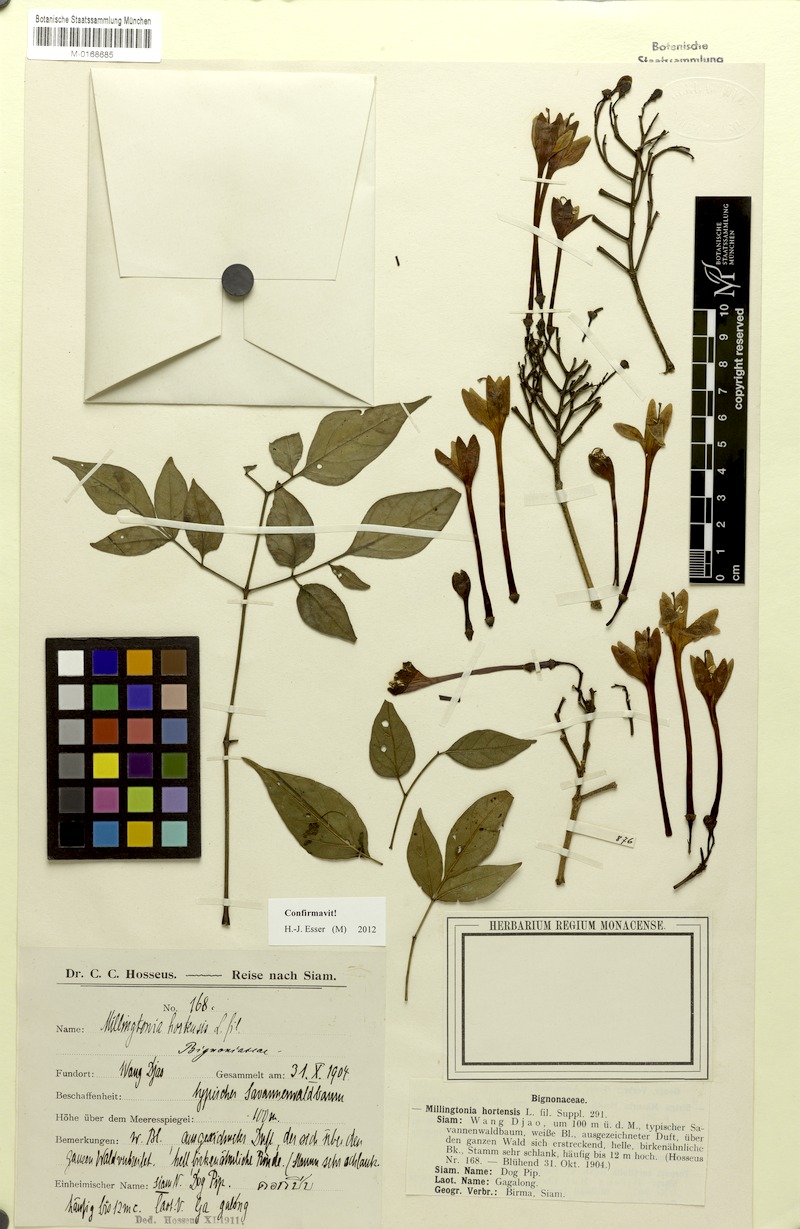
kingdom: Plantae
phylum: Tracheophyta
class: Magnoliopsida
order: Lamiales
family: Bignoniaceae
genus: Millingtonia
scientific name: Millingtonia hortensis
